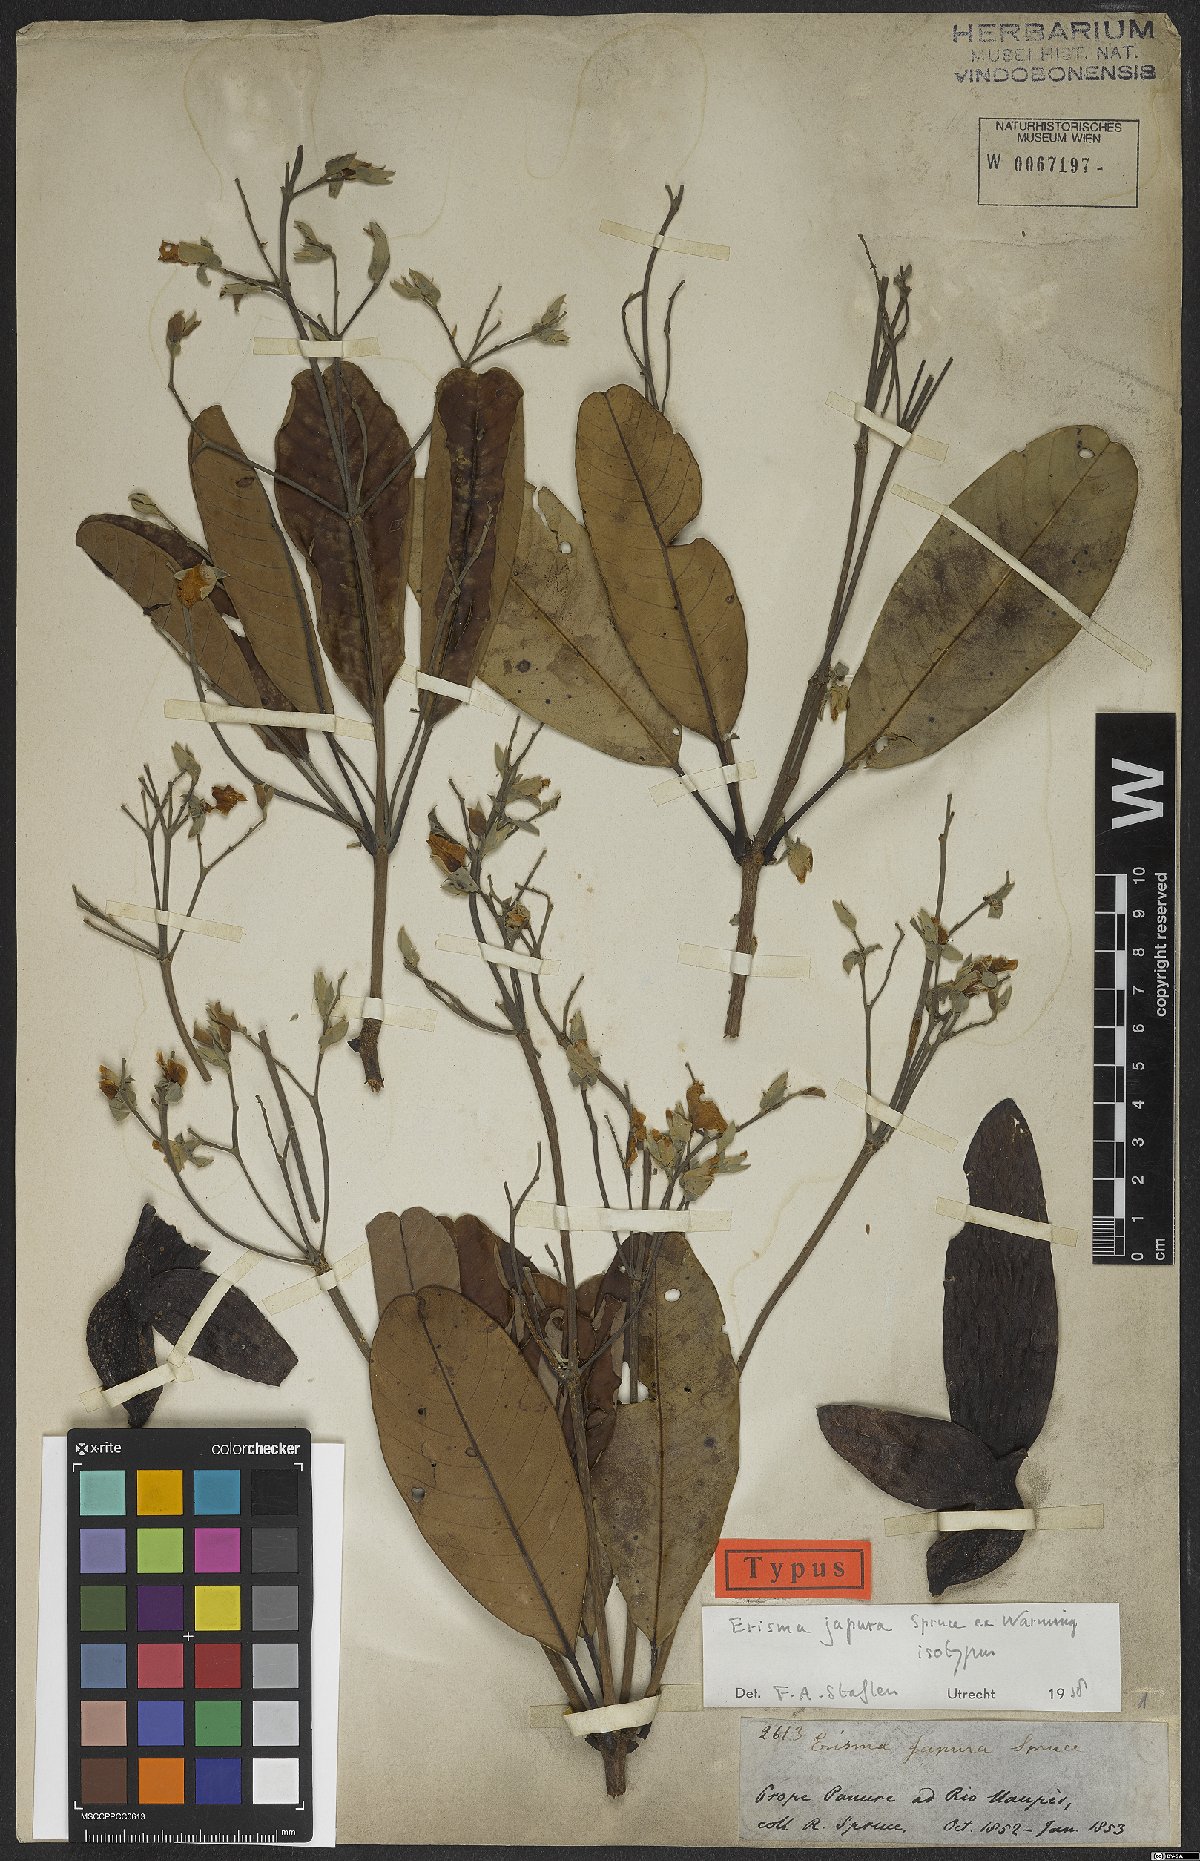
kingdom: Plantae
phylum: Tracheophyta
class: Magnoliopsida
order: Myrtales
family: Vochysiaceae
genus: Erisma
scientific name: Erisma japura
